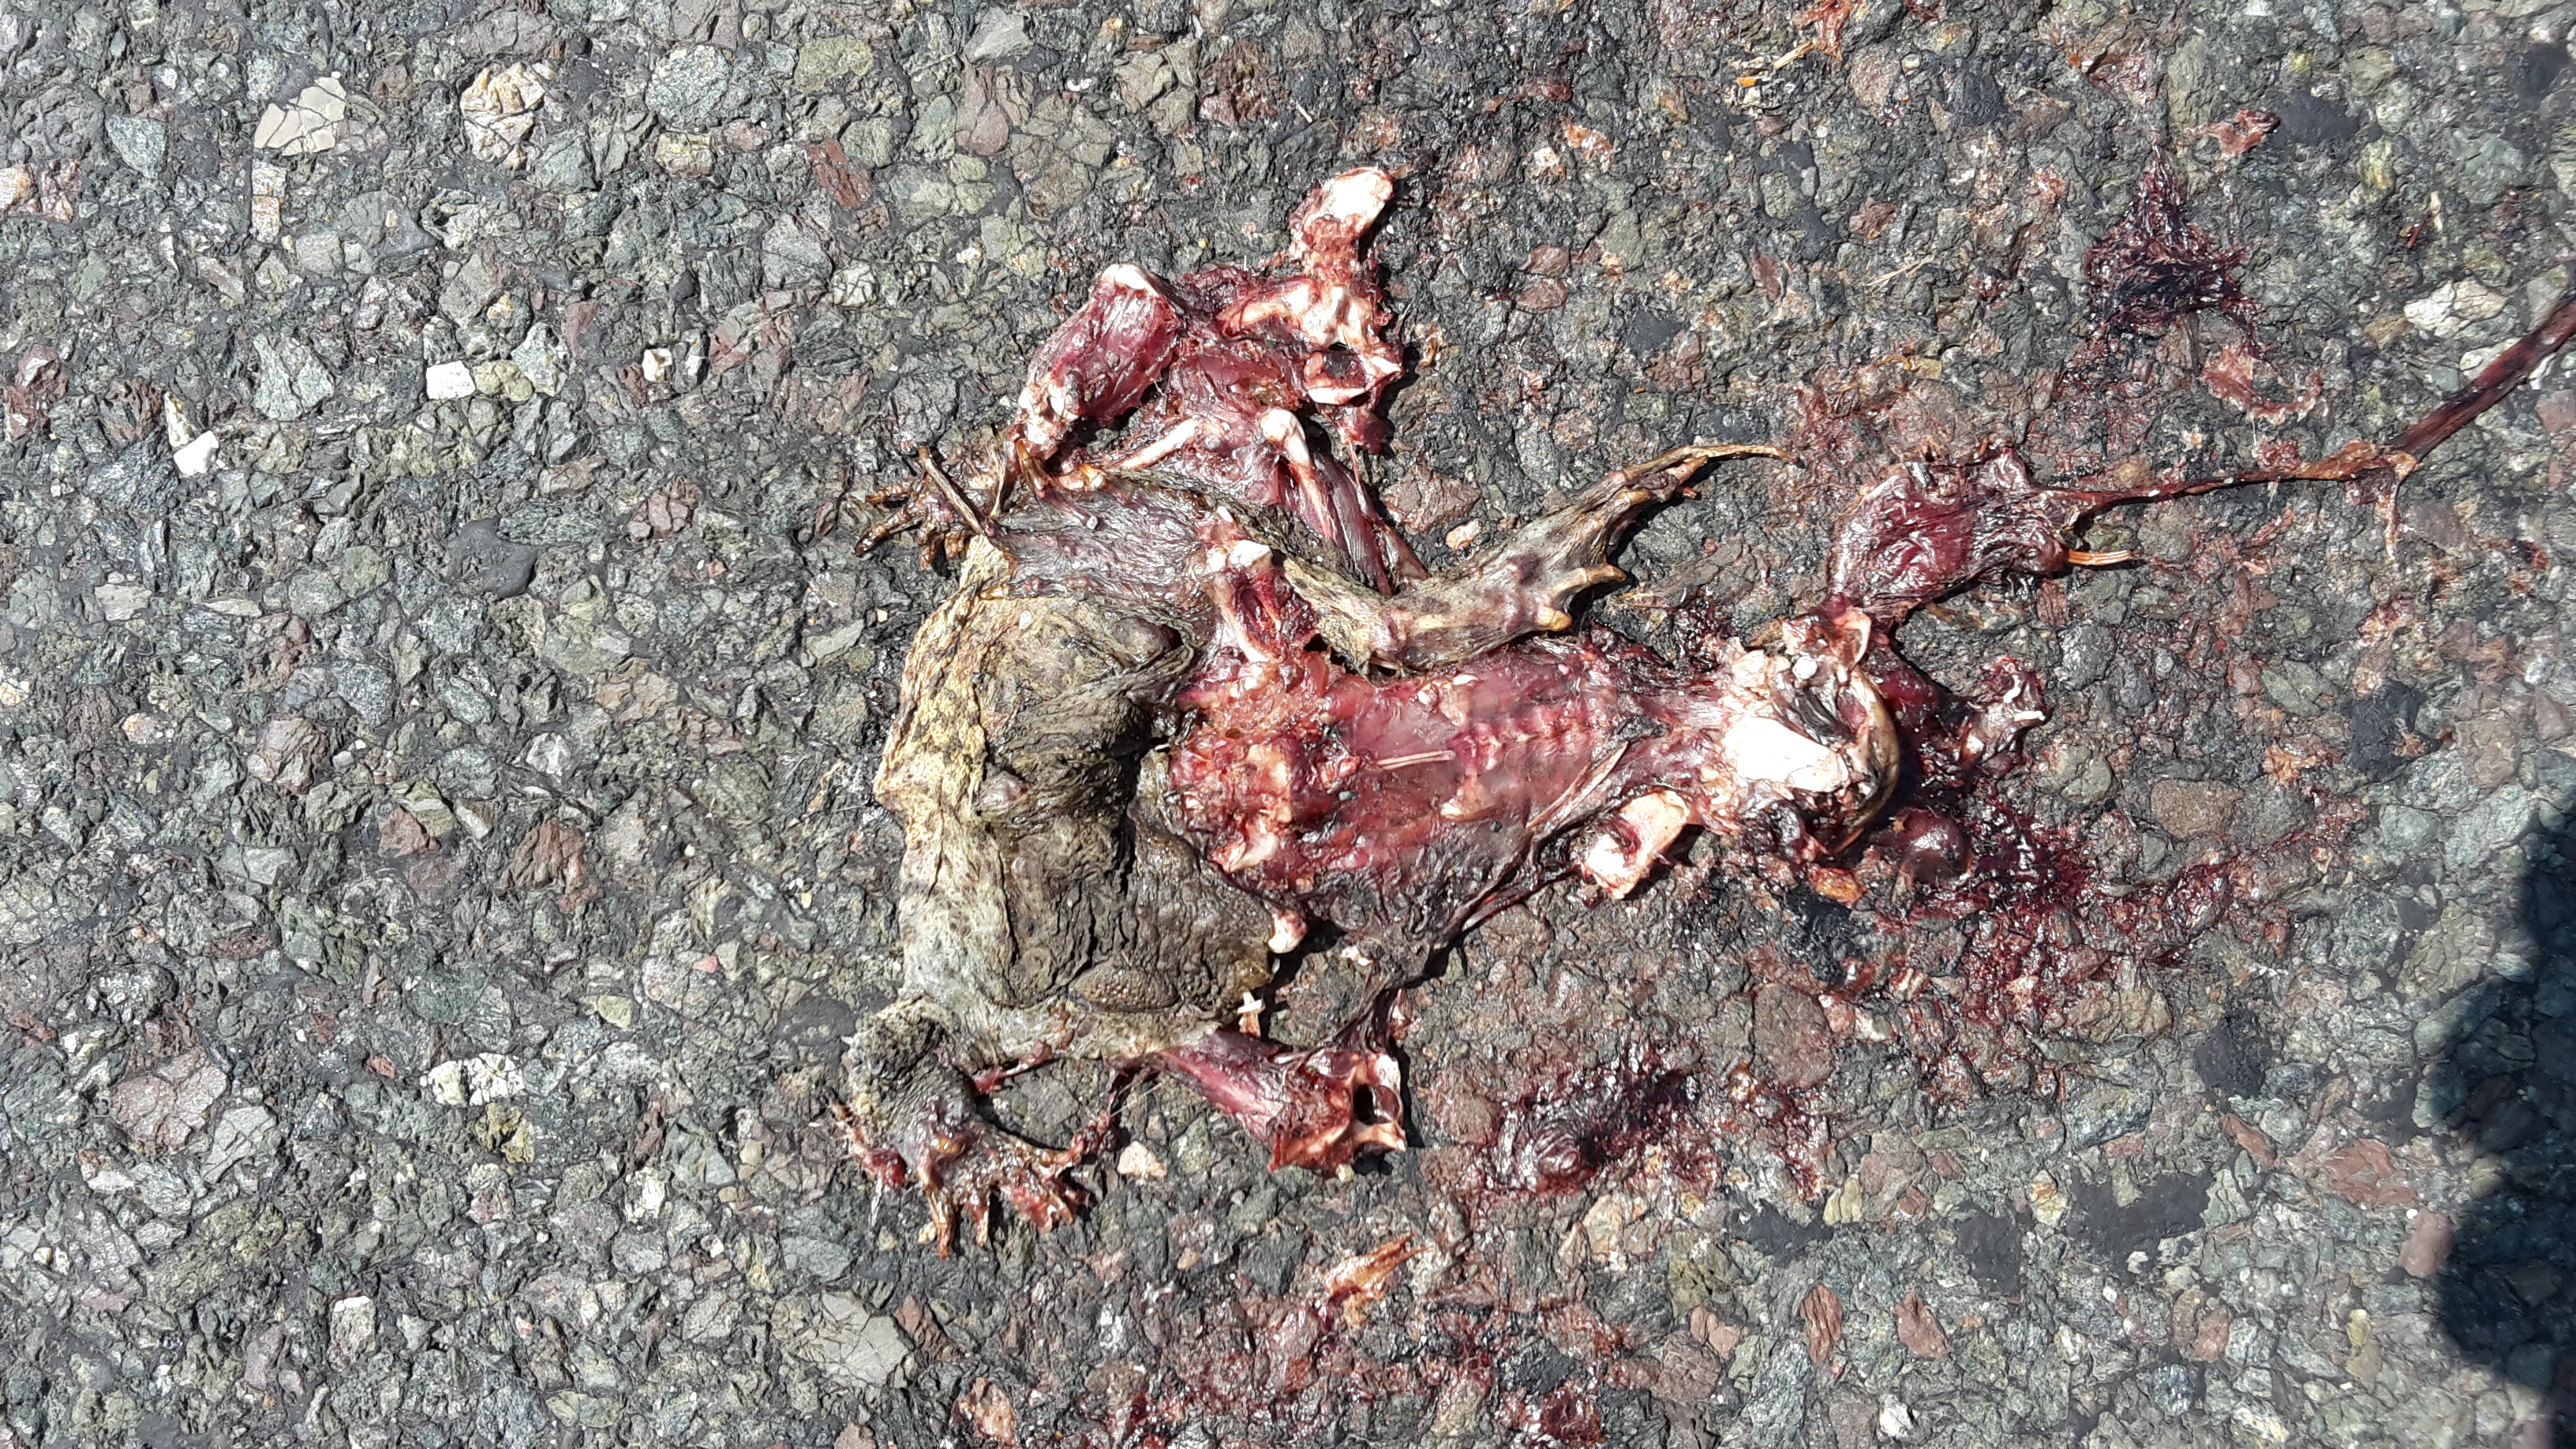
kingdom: Animalia
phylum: Chordata
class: Amphibia
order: Anura
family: Bufonidae
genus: Bufo
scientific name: Bufo bufo
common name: Common toad
